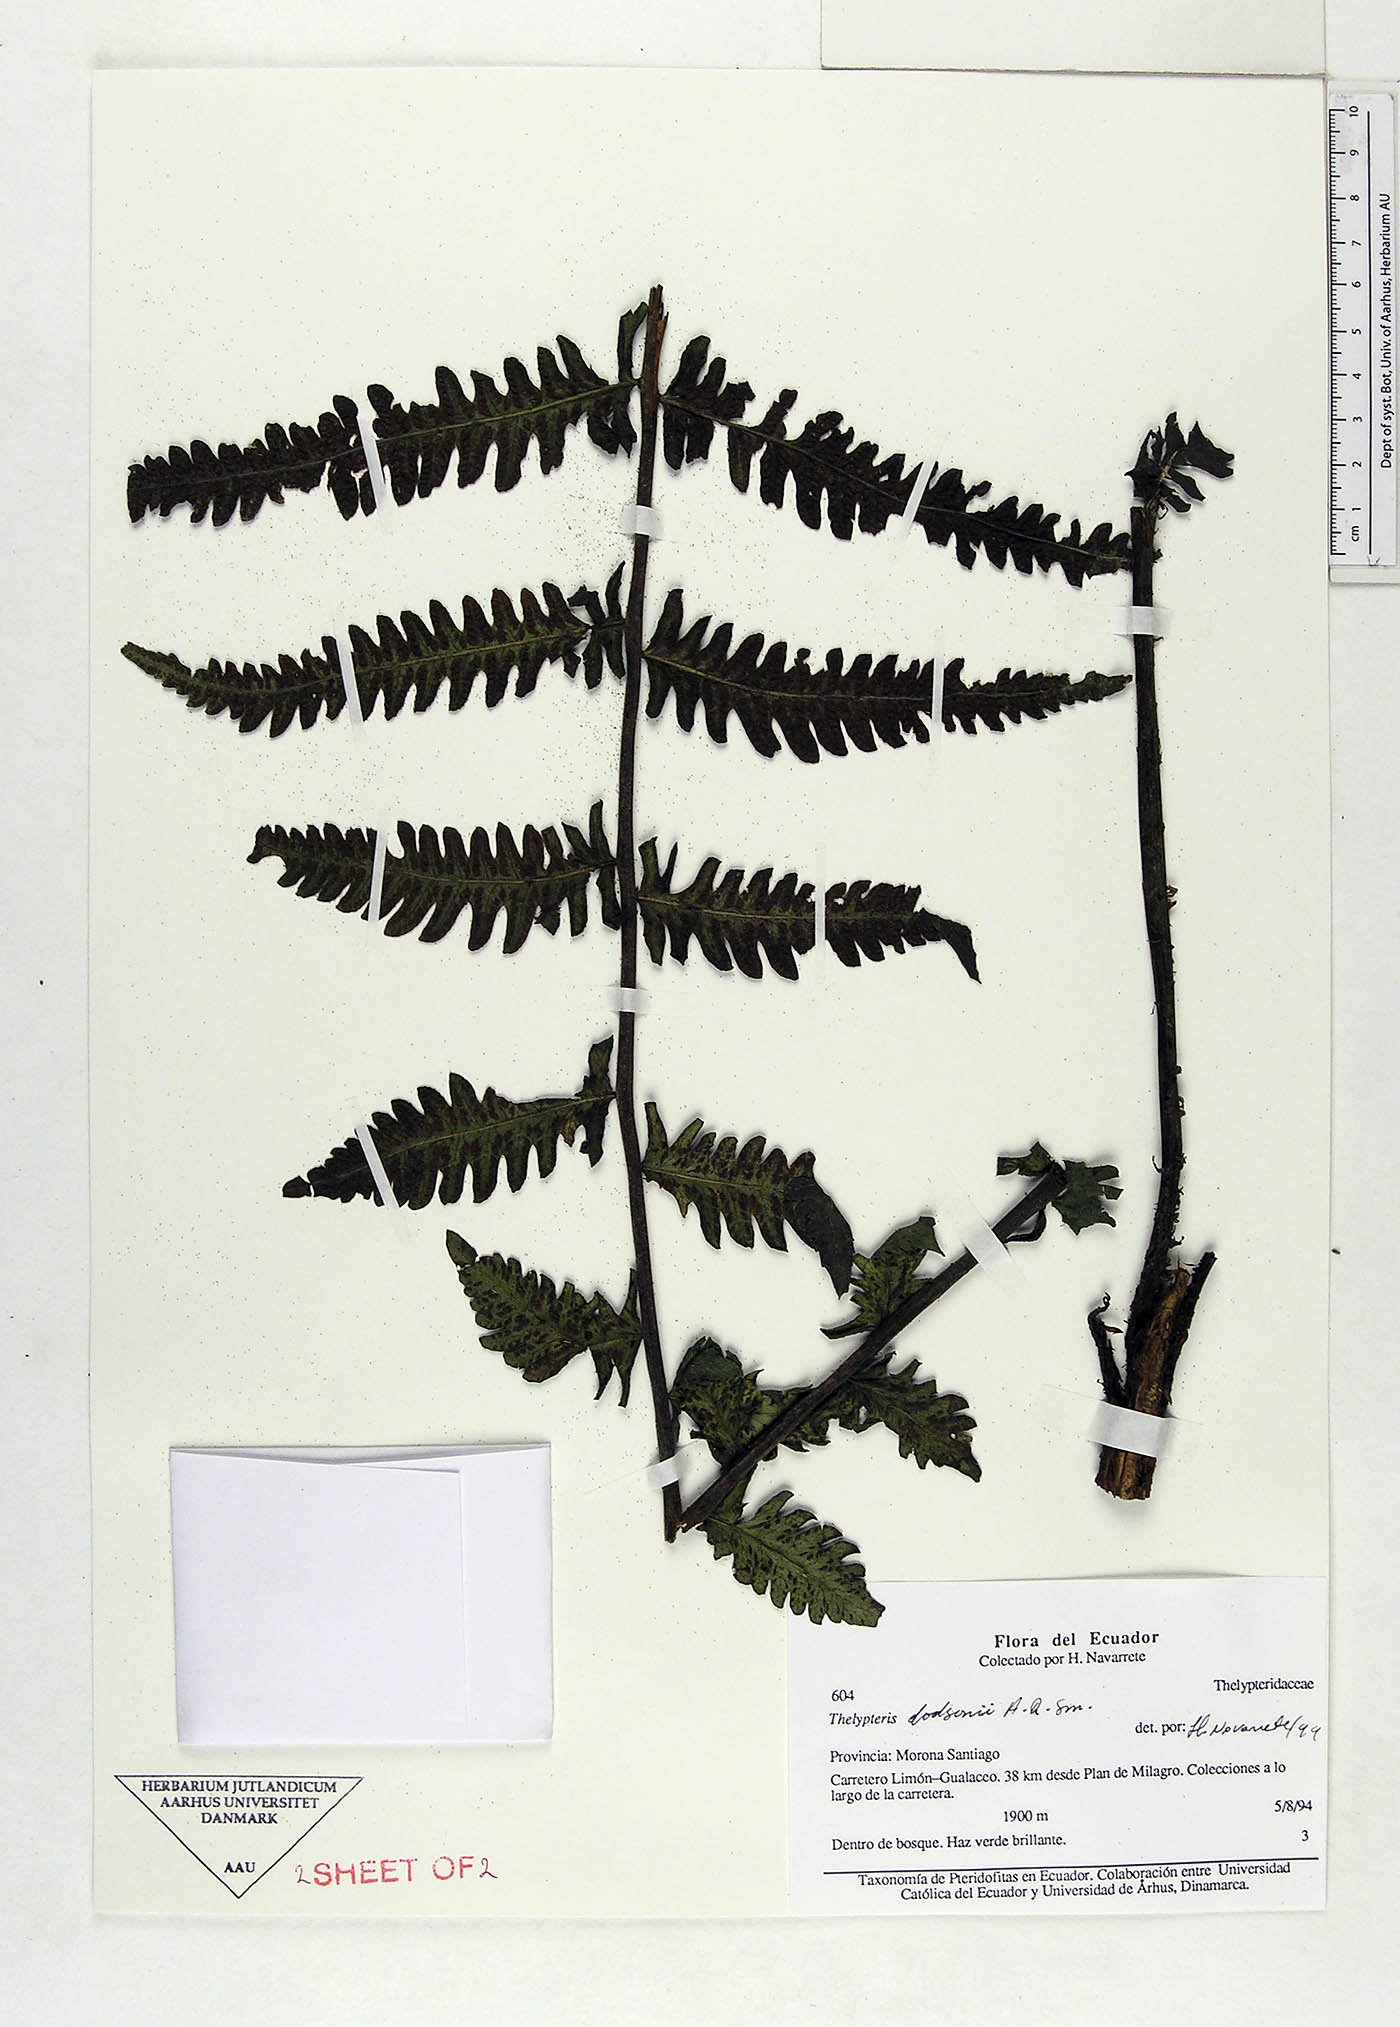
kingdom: Plantae
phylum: Tracheophyta
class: Polypodiopsida
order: Polypodiales
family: Thelypteridaceae
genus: Amauropelta
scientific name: Amauropelta dodsonii
